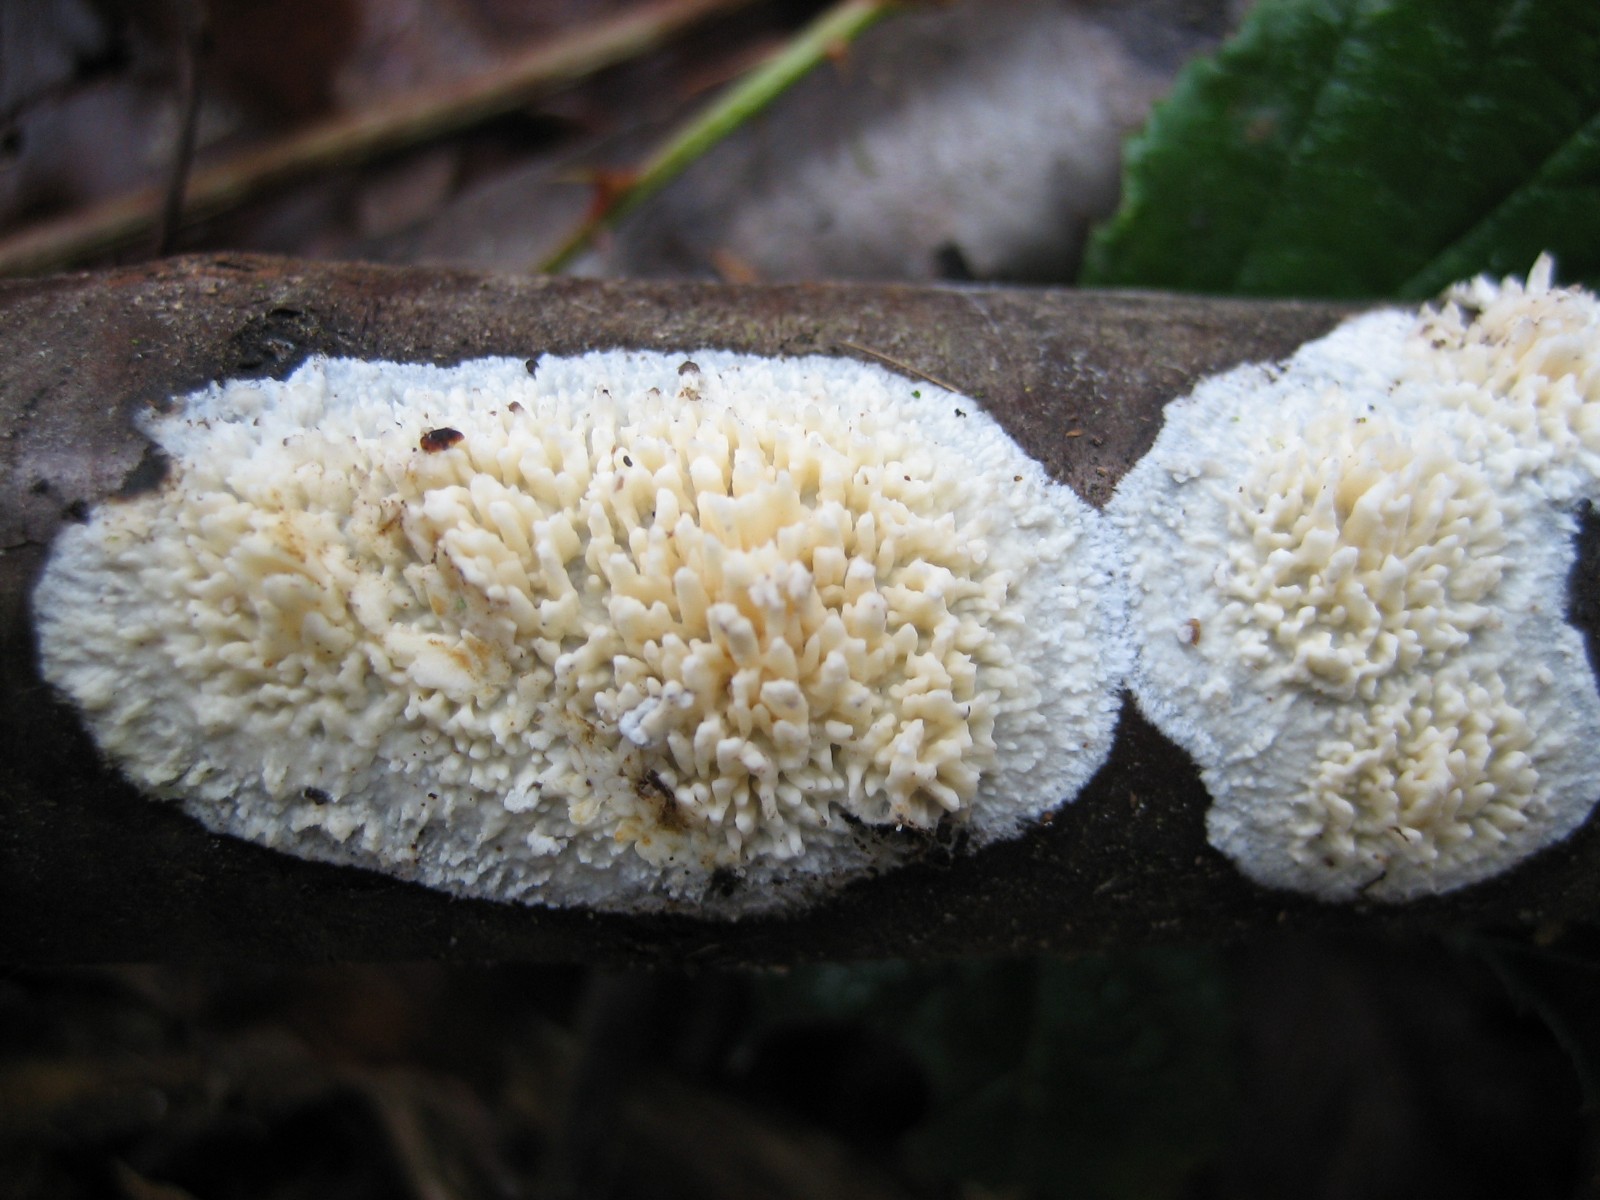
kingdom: Fungi
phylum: Basidiomycota
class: Agaricomycetes
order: Hymenochaetales
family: Schizoporaceae
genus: Xylodon
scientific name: Xylodon radula
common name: grovtandet kalkskind
